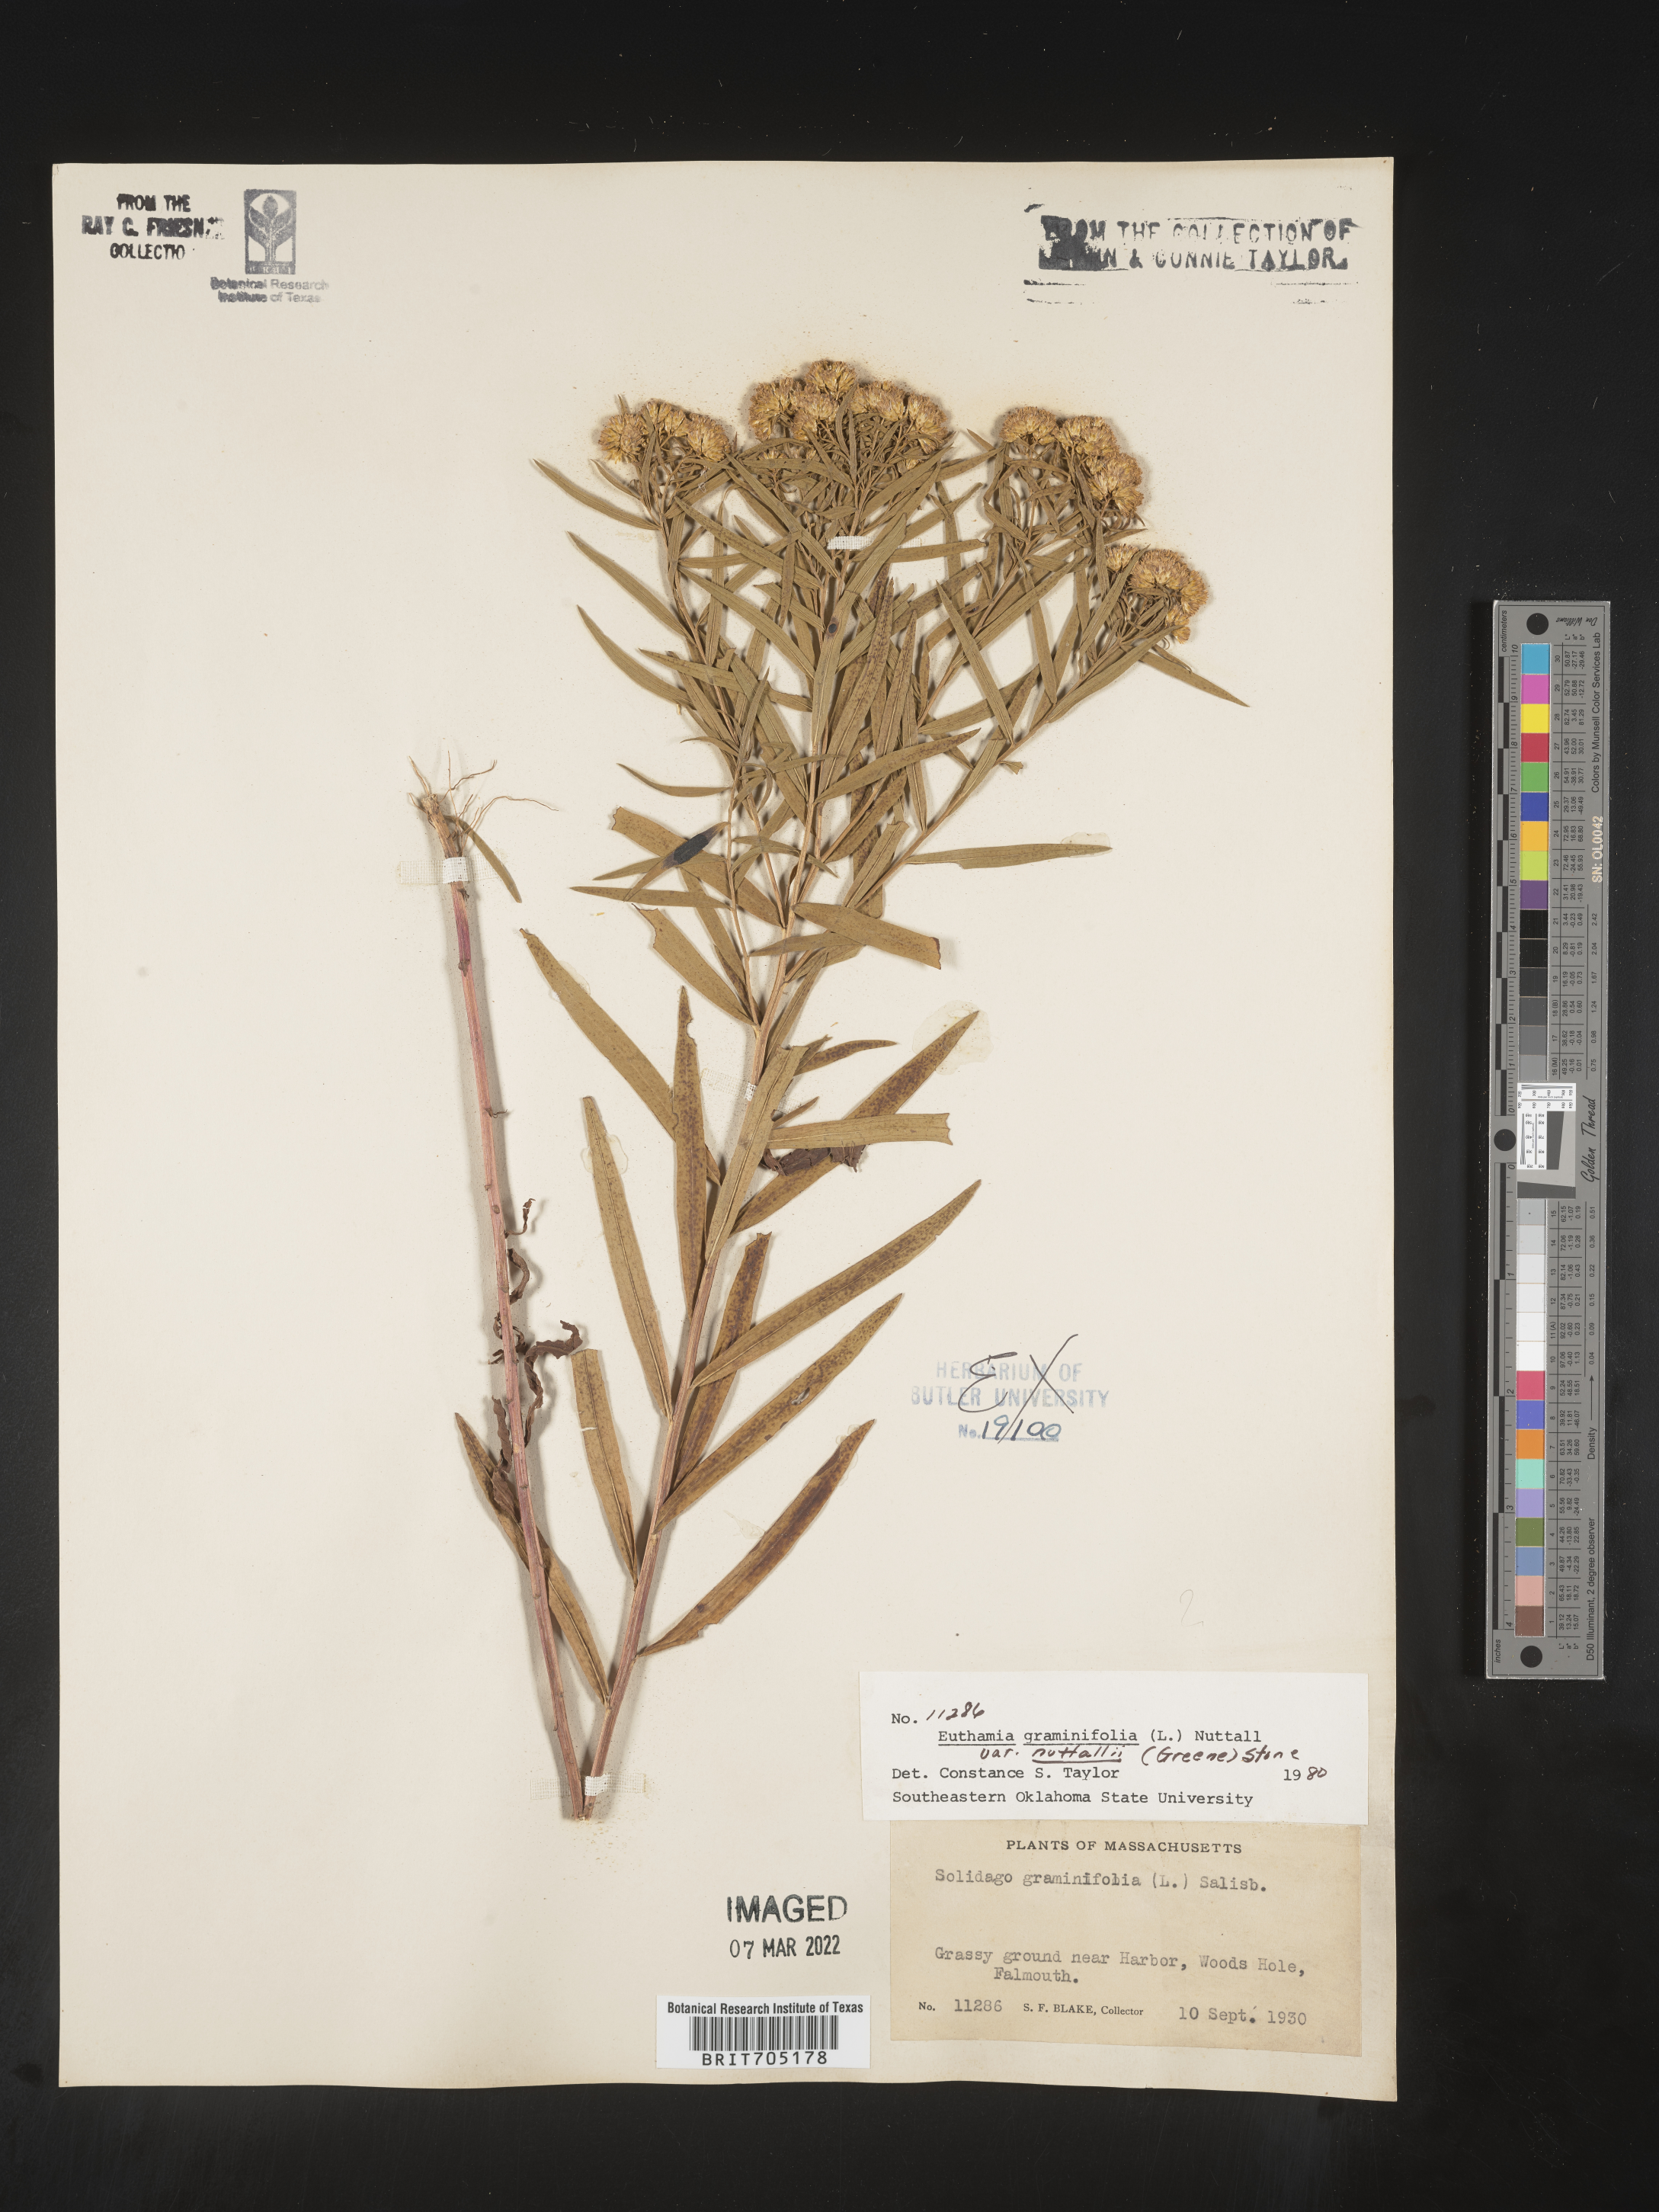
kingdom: Plantae
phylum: Tracheophyta
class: Magnoliopsida
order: Asterales
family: Asteraceae
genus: Euthamia
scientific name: Euthamia
